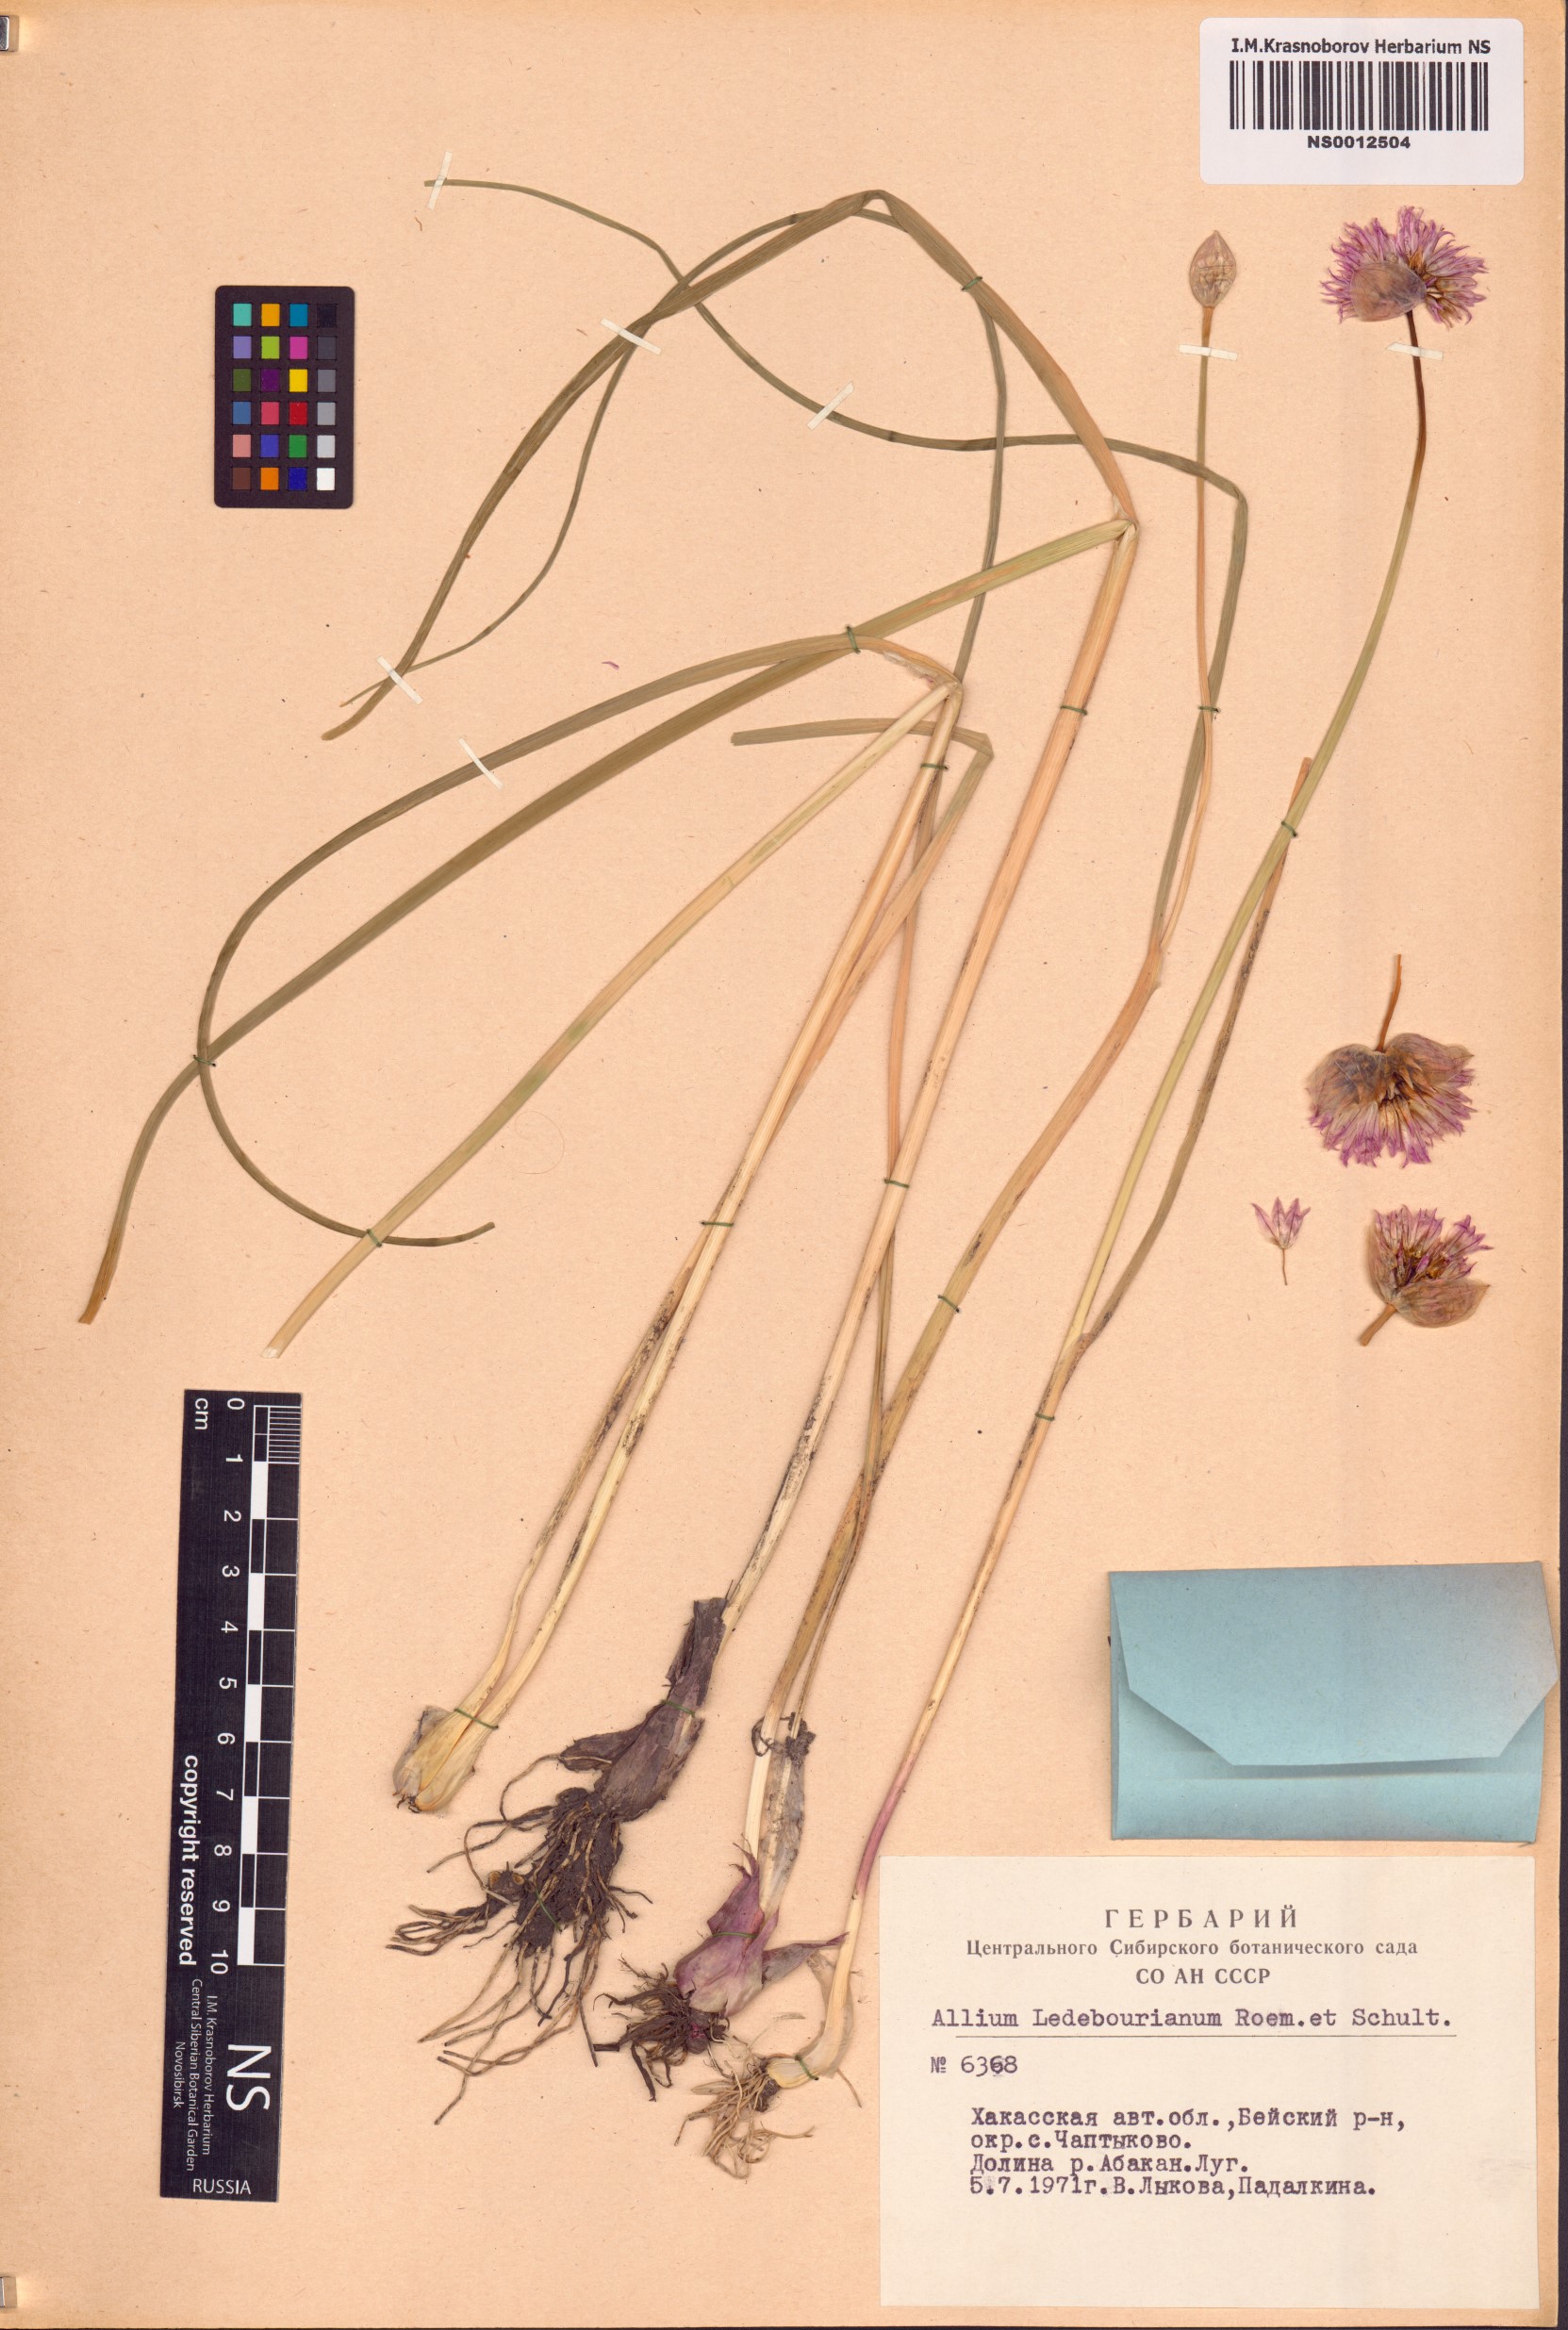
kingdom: Plantae
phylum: Tracheophyta
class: Liliopsida
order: Asparagales
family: Amaryllidaceae
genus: Allium
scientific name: Allium ledebourianum
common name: Ledebour chive
